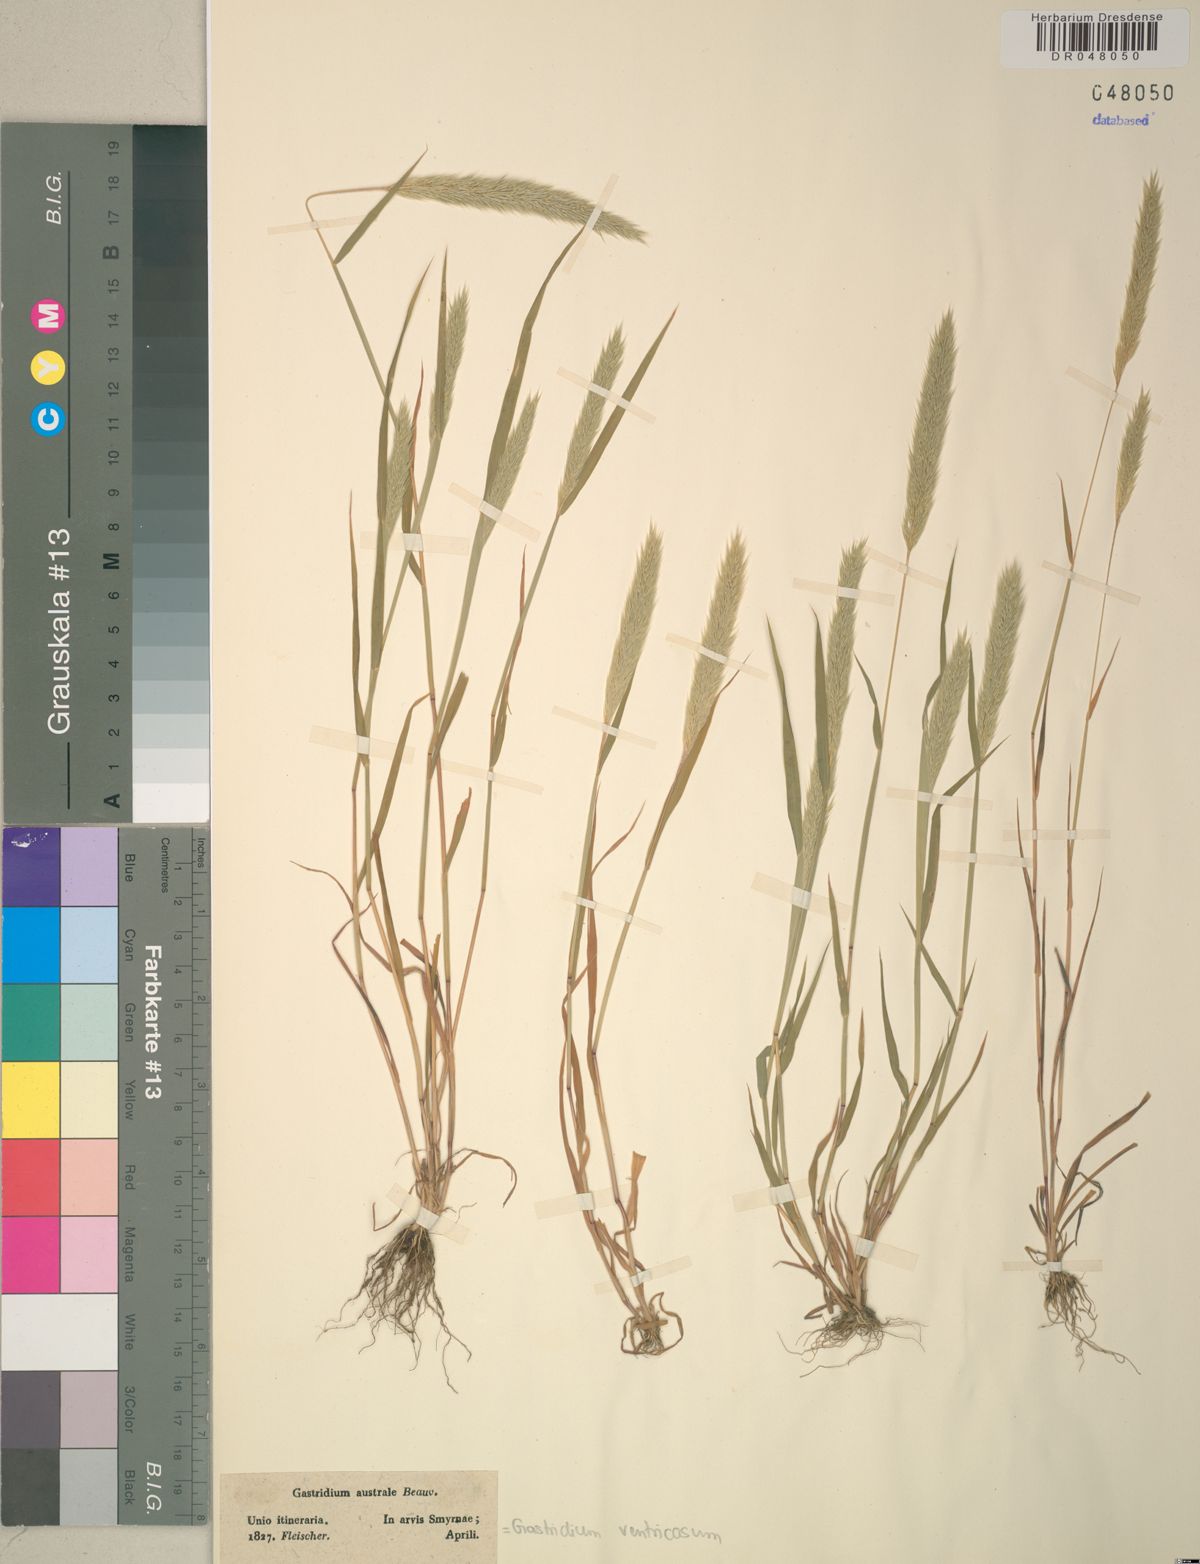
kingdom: Plantae
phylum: Tracheophyta
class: Liliopsida
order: Poales
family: Poaceae
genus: Gastridium
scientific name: Gastridium ventricosum
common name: Nit-grass
